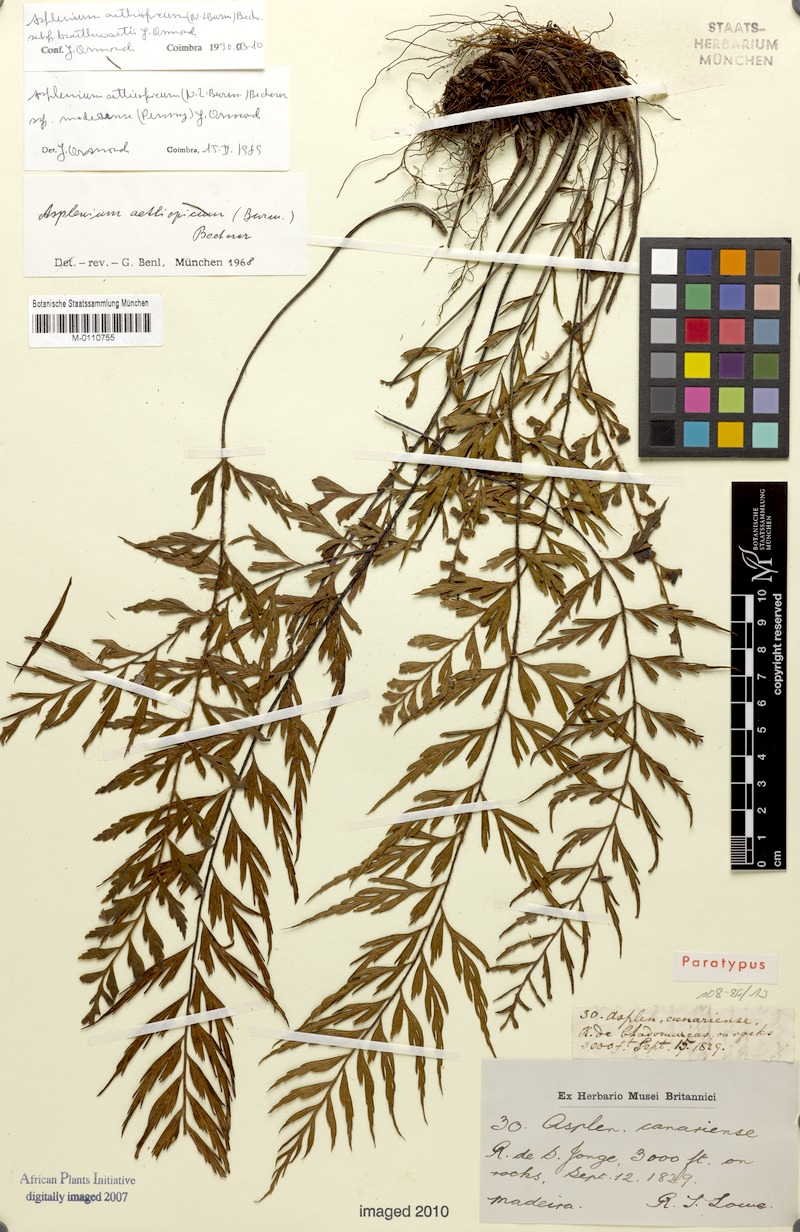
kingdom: Plantae
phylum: Tracheophyta
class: Polypodiopsida
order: Polypodiales
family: Aspleniaceae
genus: Asplenium
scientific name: Asplenium aethiopicum
